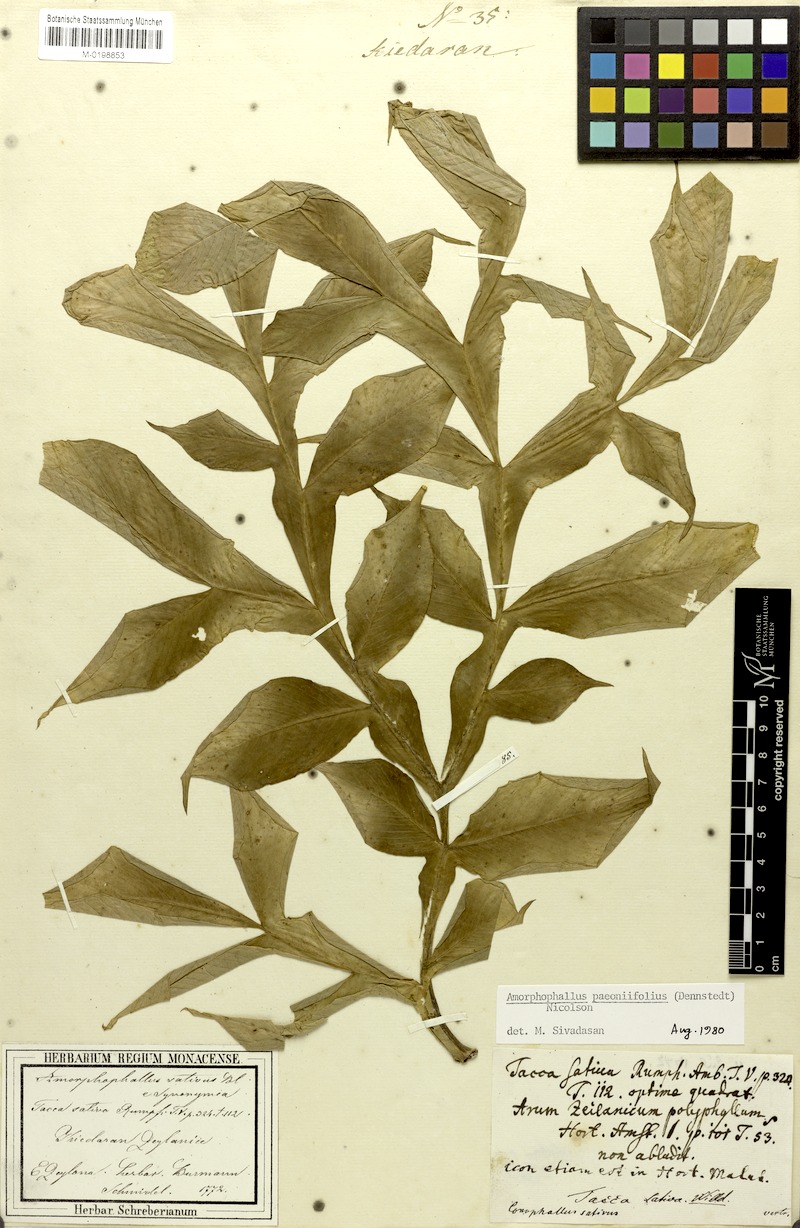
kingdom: Plantae
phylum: Tracheophyta
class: Liliopsida
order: Alismatales
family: Araceae
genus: Amorphophallus
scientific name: Amorphophallus paeoniifolius
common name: Telinga-potato
